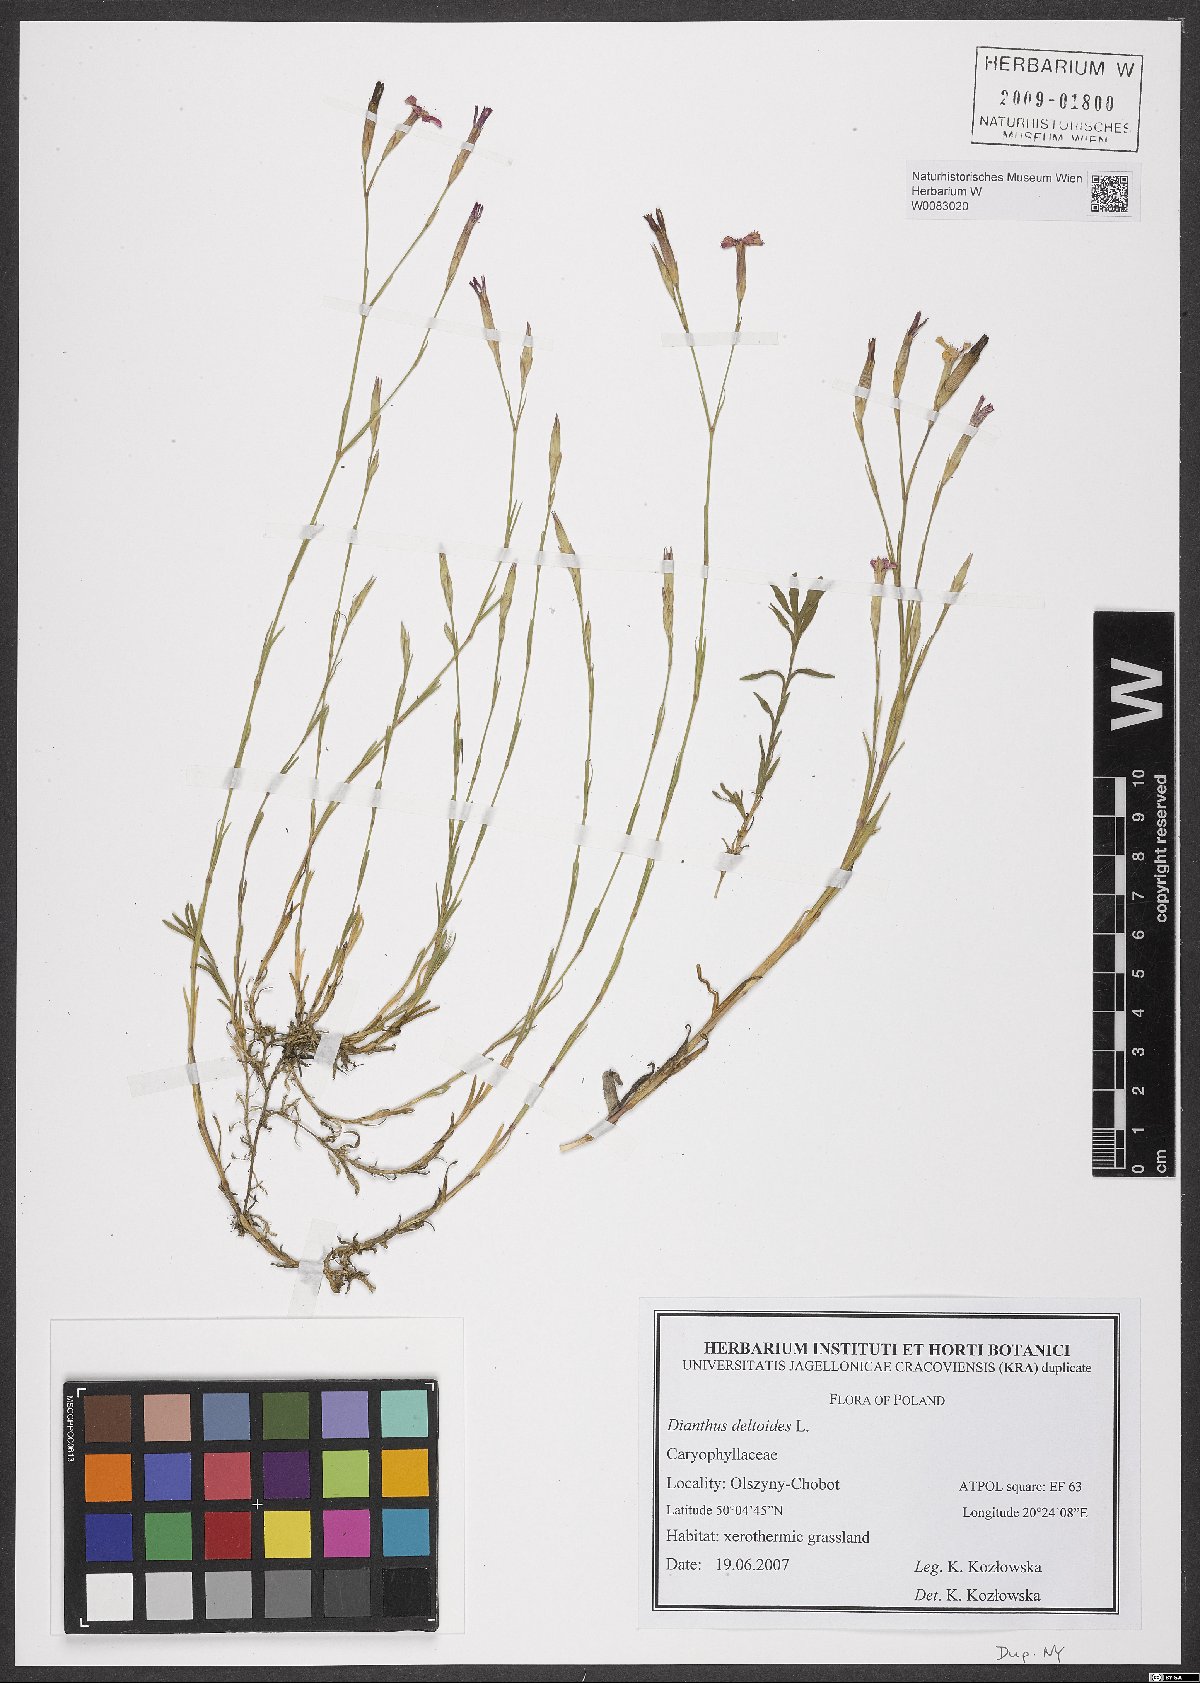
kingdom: Plantae
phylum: Tracheophyta
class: Magnoliopsida
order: Caryophyllales
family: Caryophyllaceae
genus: Dianthus
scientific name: Dianthus deltoides
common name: Maiden pink
